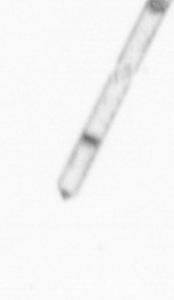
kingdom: Chromista
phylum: Ochrophyta
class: Bacillariophyceae
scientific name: Bacillariophyceae
